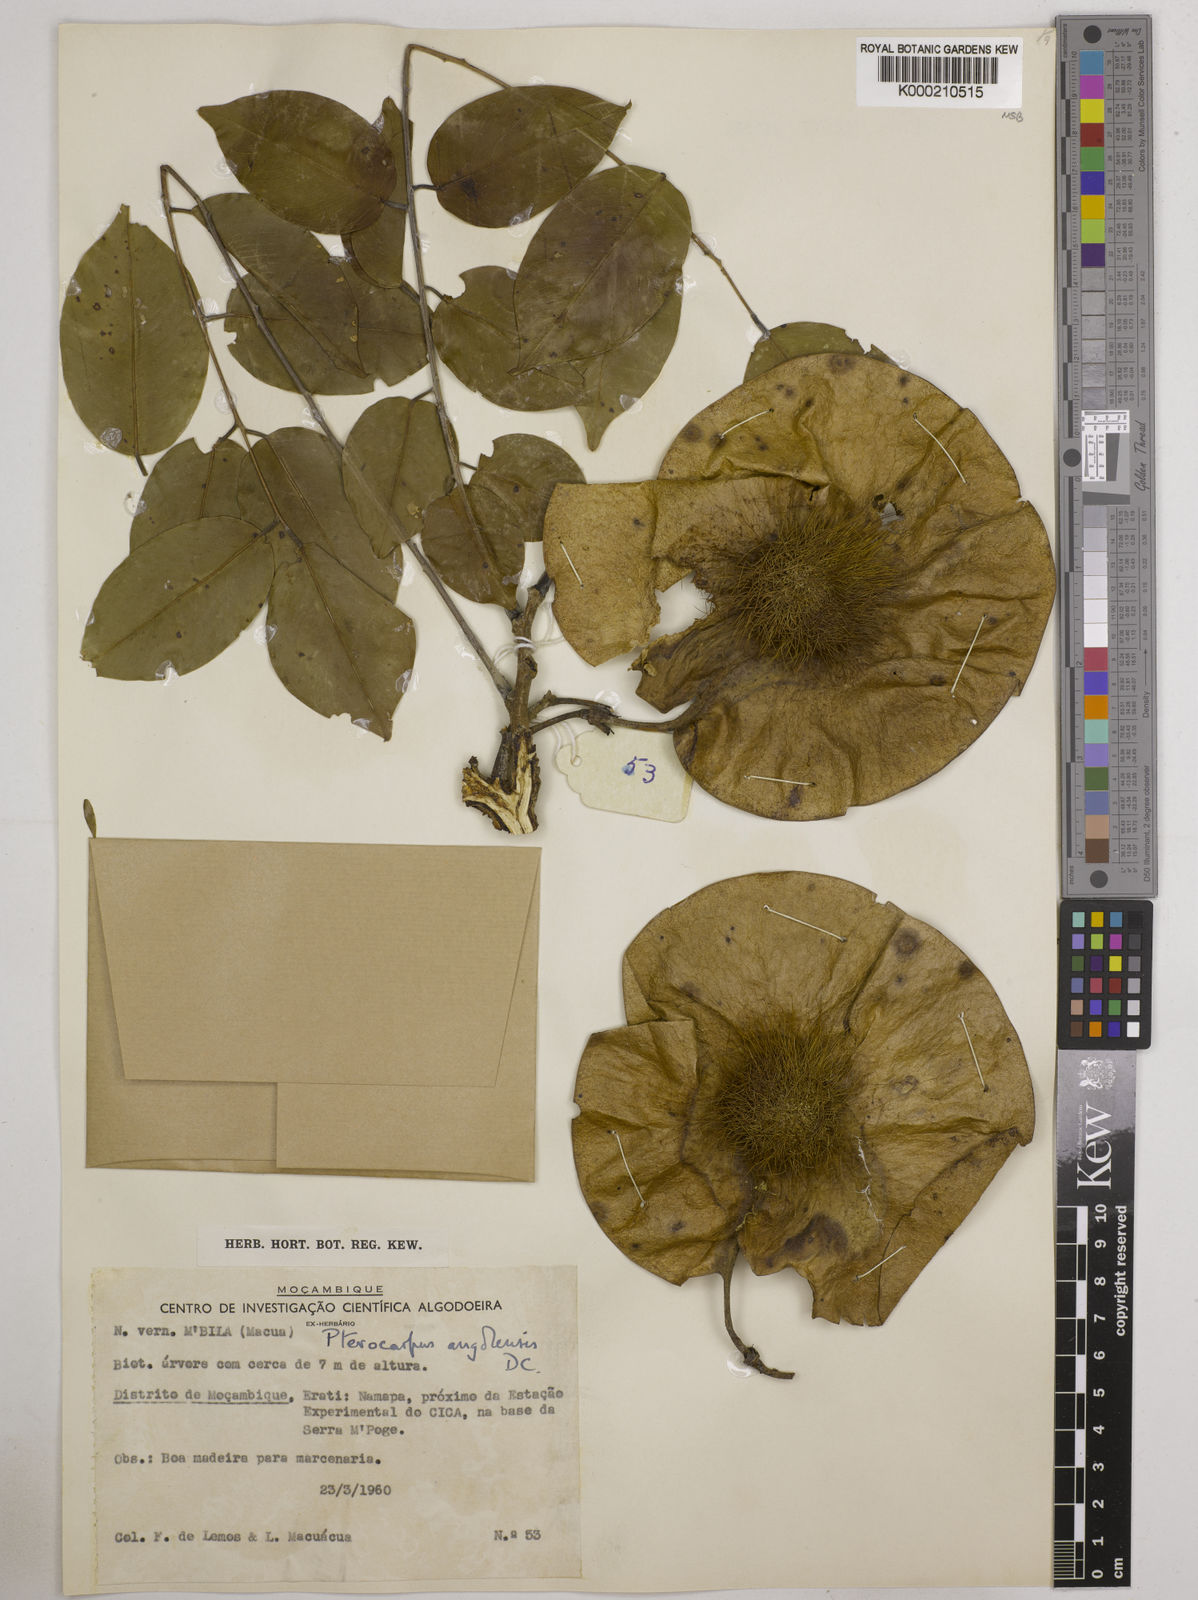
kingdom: Plantae
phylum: Tracheophyta
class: Magnoliopsida
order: Fabales
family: Fabaceae
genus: Pterocarpus
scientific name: Pterocarpus angolensis
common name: Bloodwood tree
